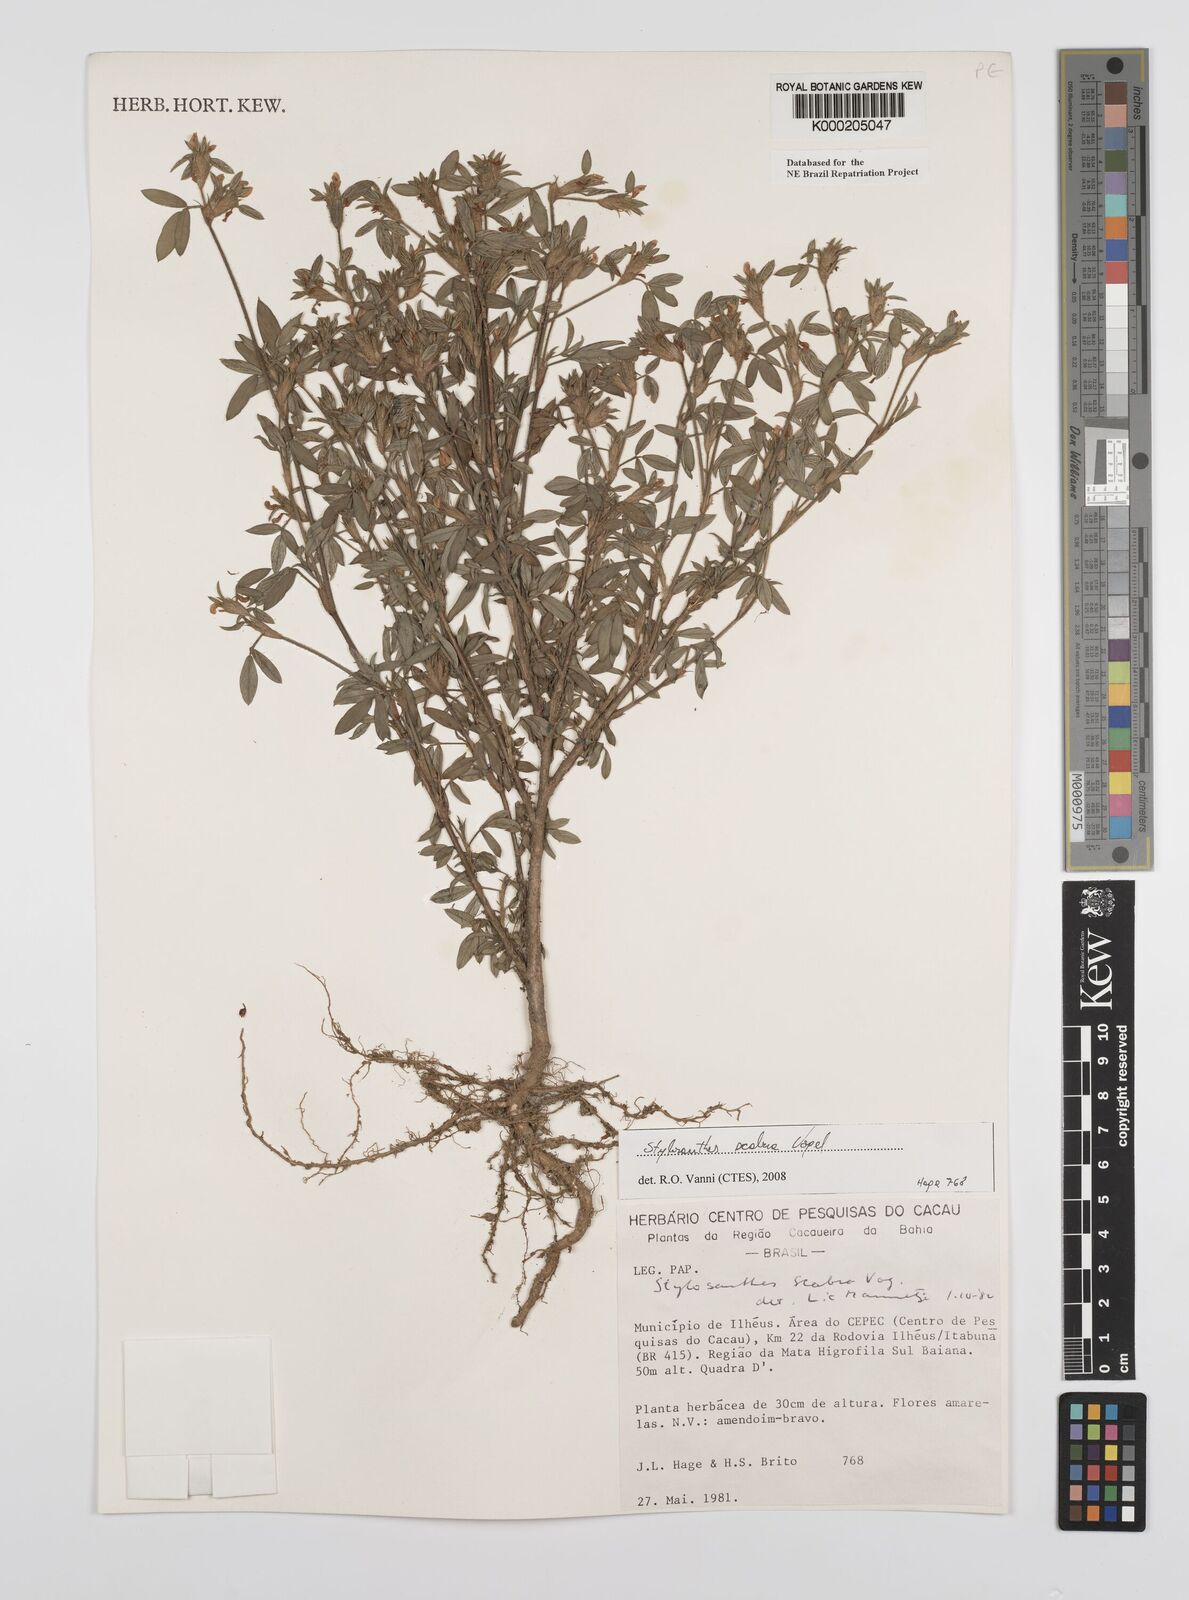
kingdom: Plantae
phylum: Tracheophyta
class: Magnoliopsida
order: Fabales
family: Fabaceae
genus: Stylosanthes
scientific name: Stylosanthes scabra
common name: Pencilflower
